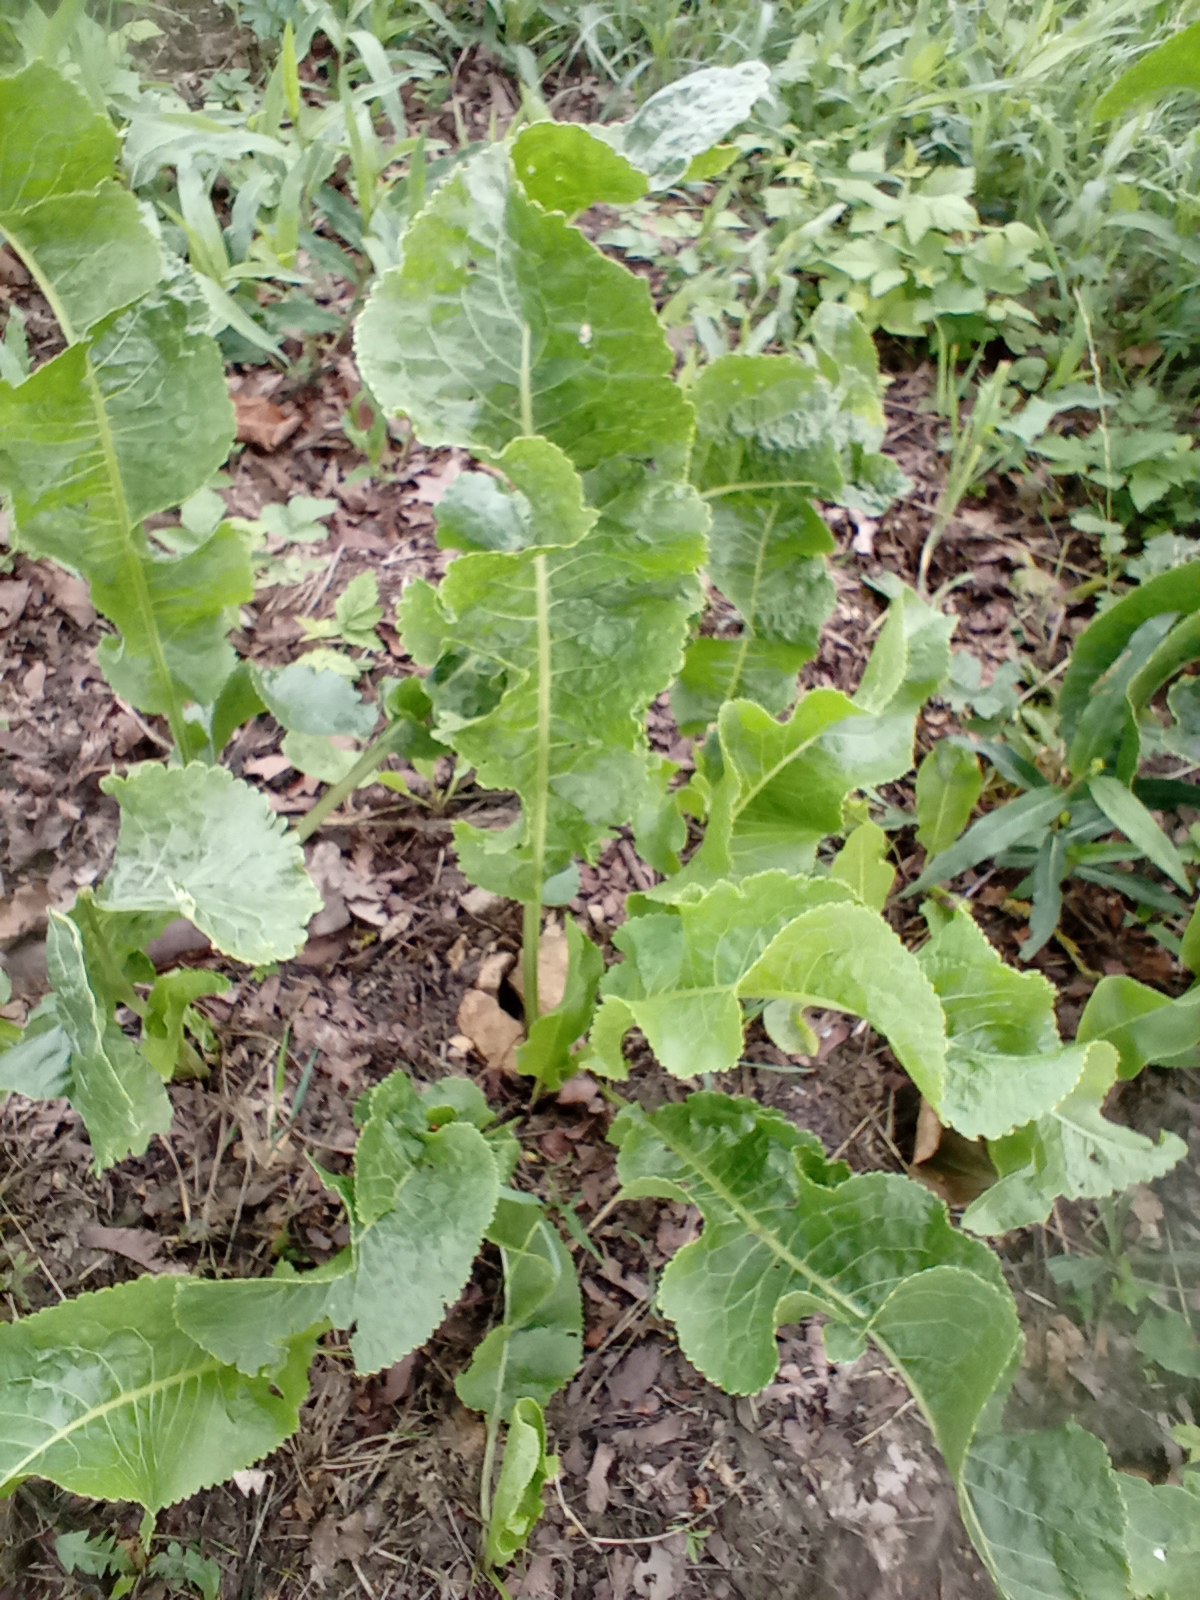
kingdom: Plantae
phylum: Tracheophyta
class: Magnoliopsida
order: Brassicales
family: Brassicaceae
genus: Armoracia
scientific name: Armoracia rusticana
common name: Peberrod
